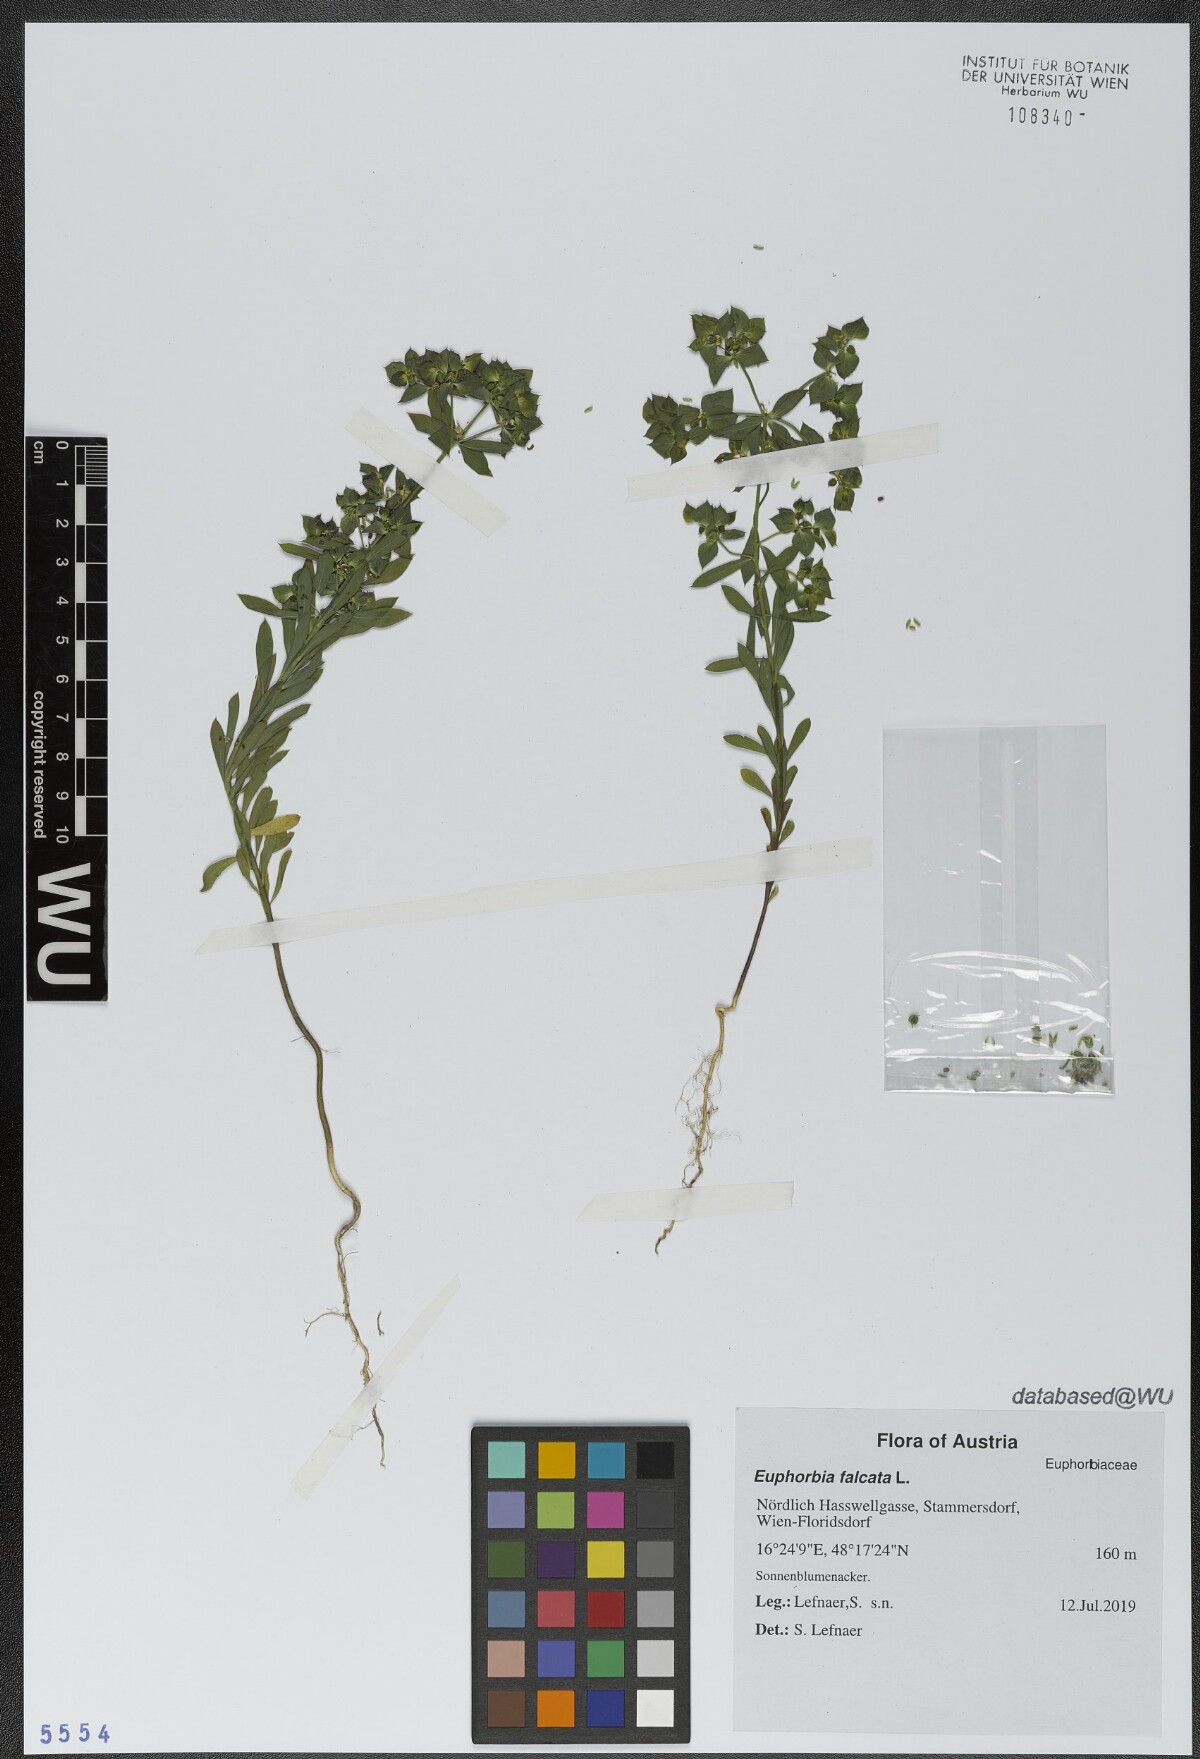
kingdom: Plantae
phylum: Tracheophyta
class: Magnoliopsida
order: Malpighiales
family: Euphorbiaceae
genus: Euphorbia
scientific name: Euphorbia falcata
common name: Sickle spurge
